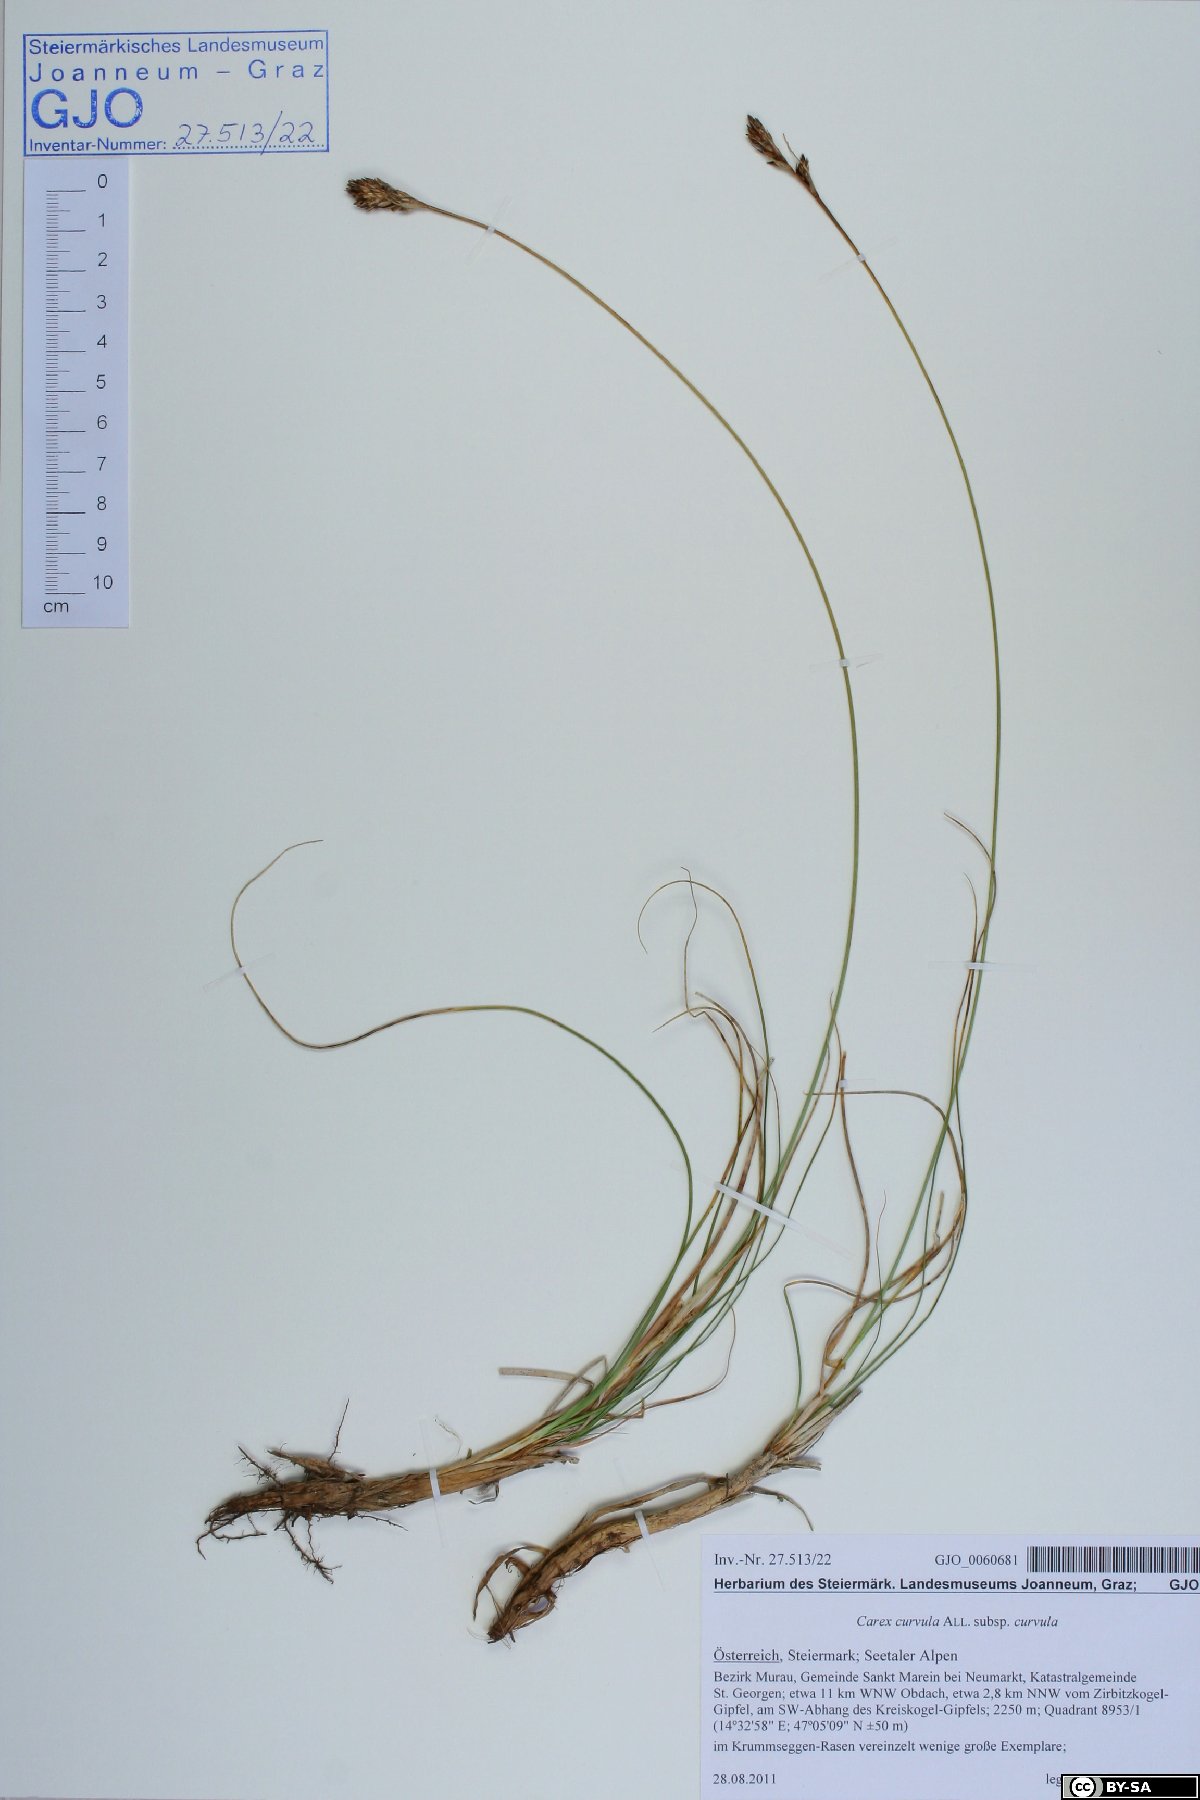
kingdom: Plantae
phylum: Tracheophyta
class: Liliopsida
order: Poales
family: Cyperaceae
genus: Carex
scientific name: Carex curvula
